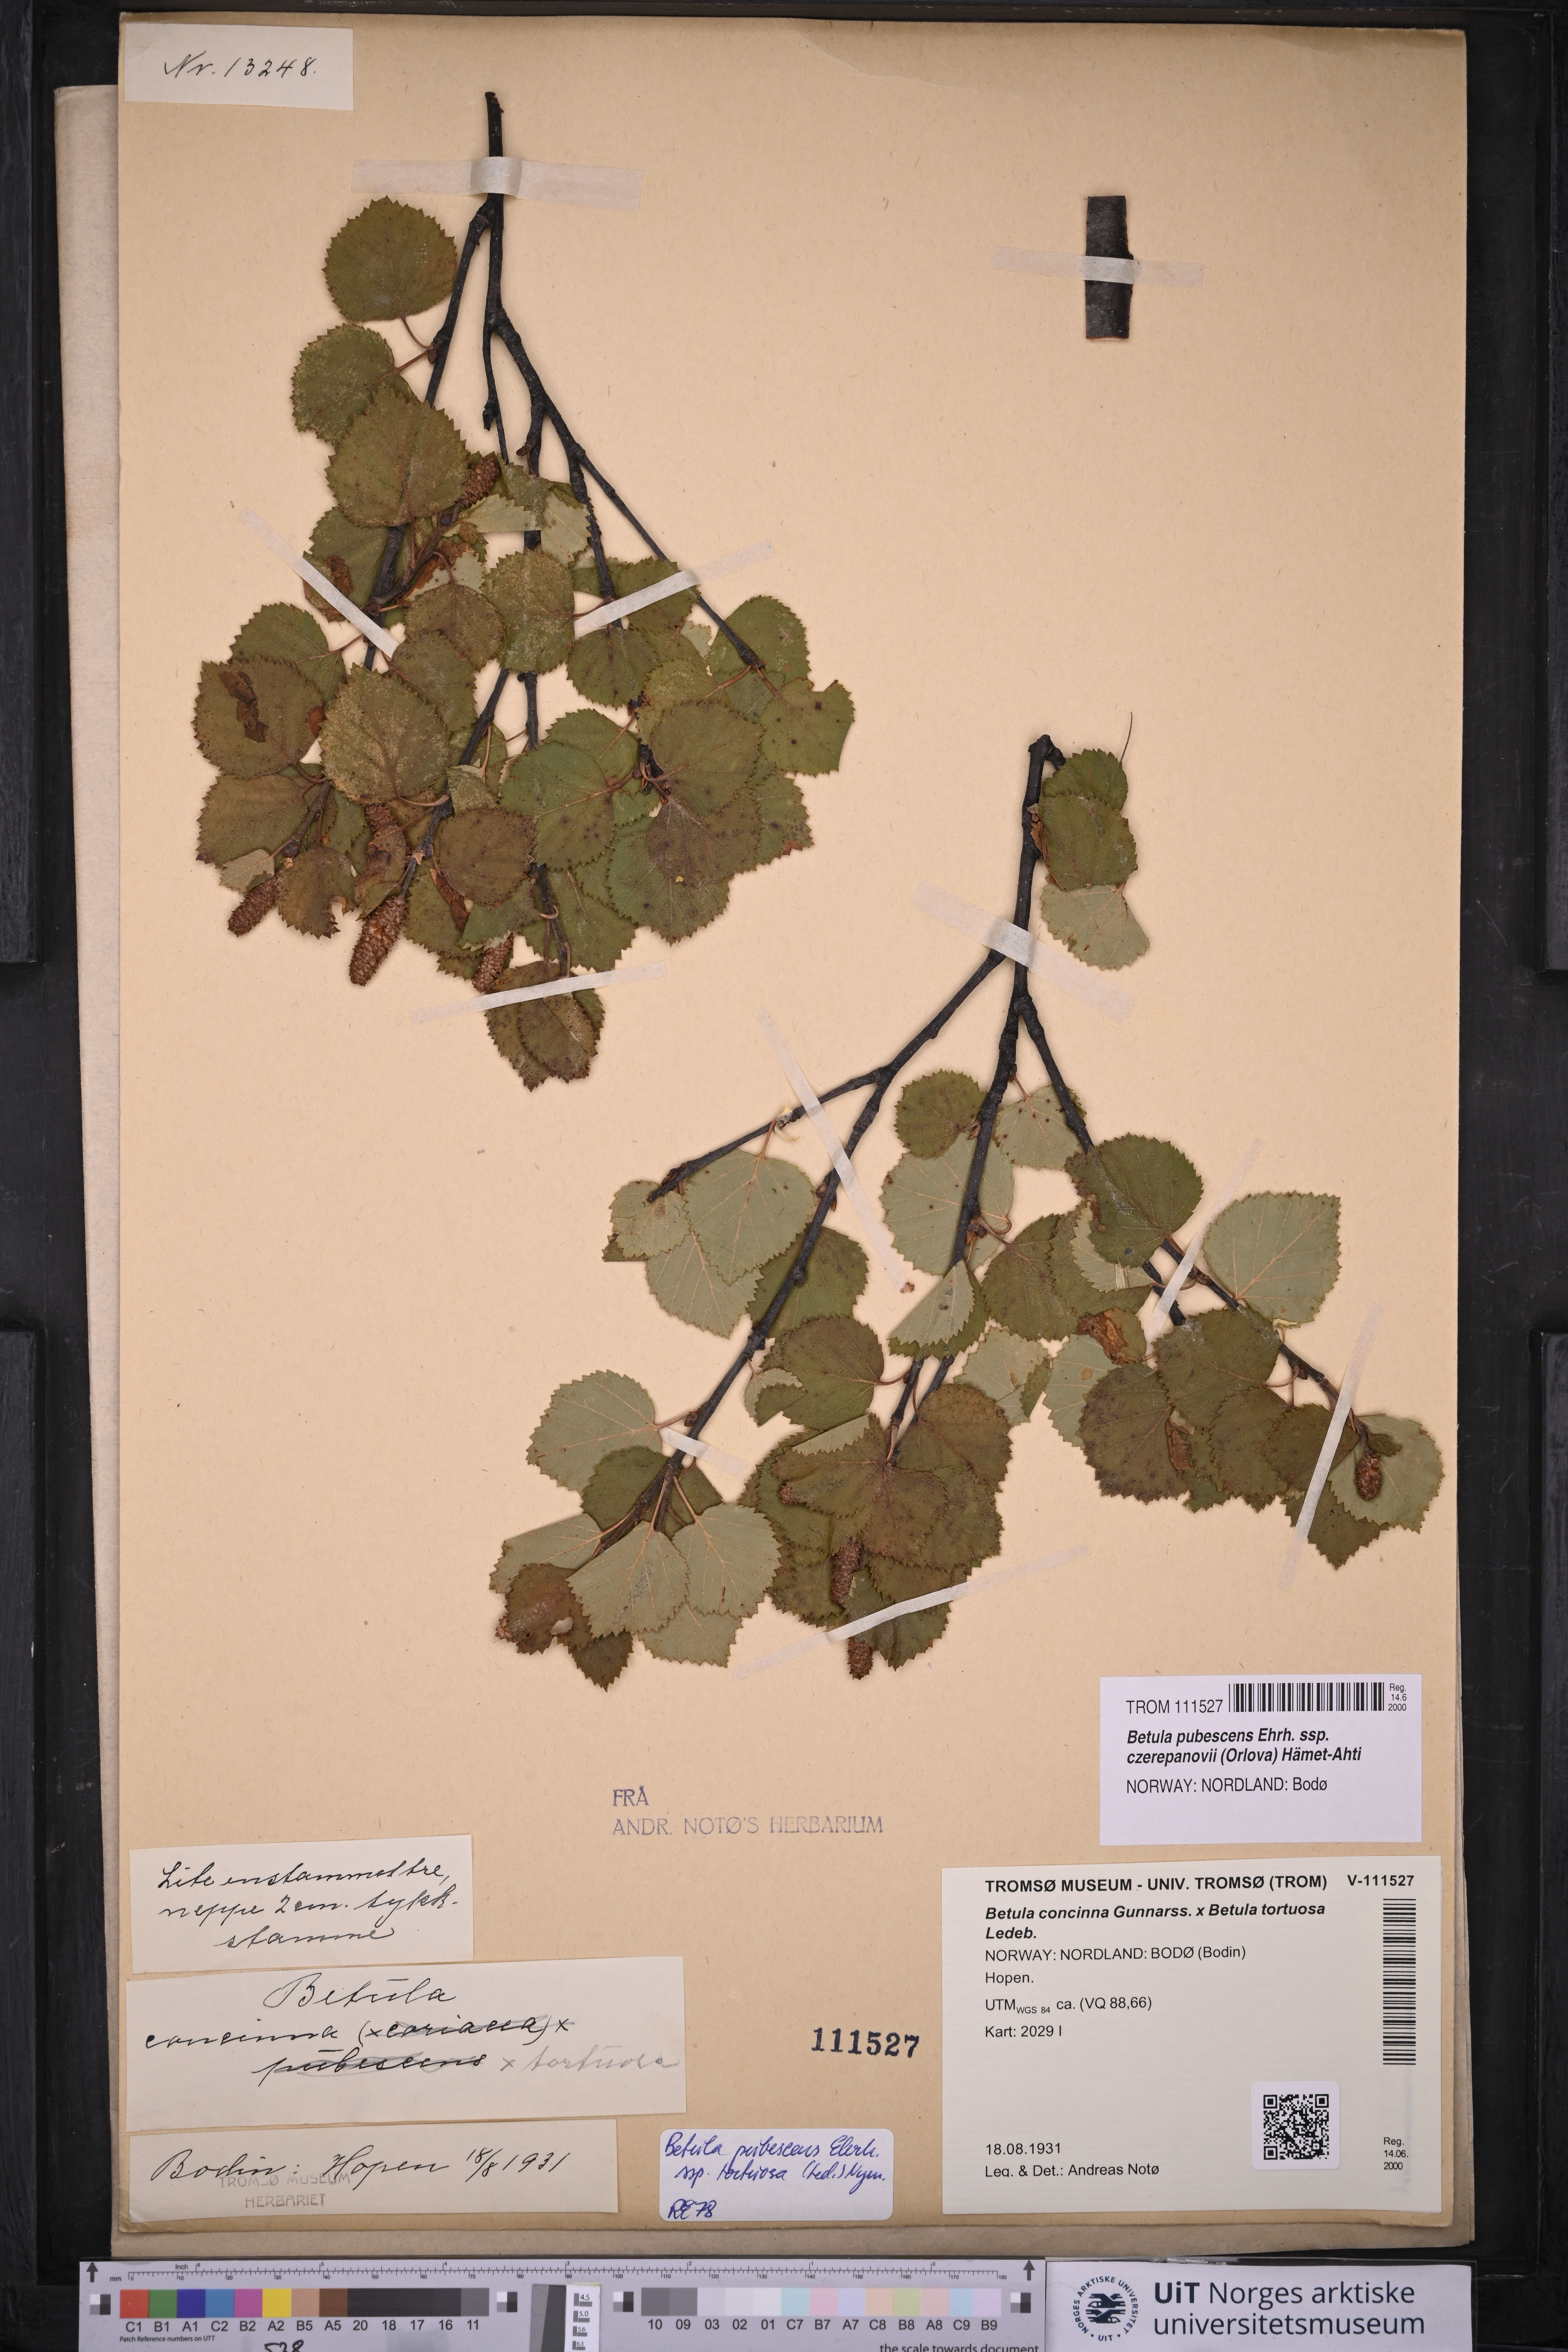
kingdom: Plantae
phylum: Tracheophyta
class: Magnoliopsida
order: Fagales
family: Betulaceae
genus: Betula
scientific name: Betula pubescens
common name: Downy birch
